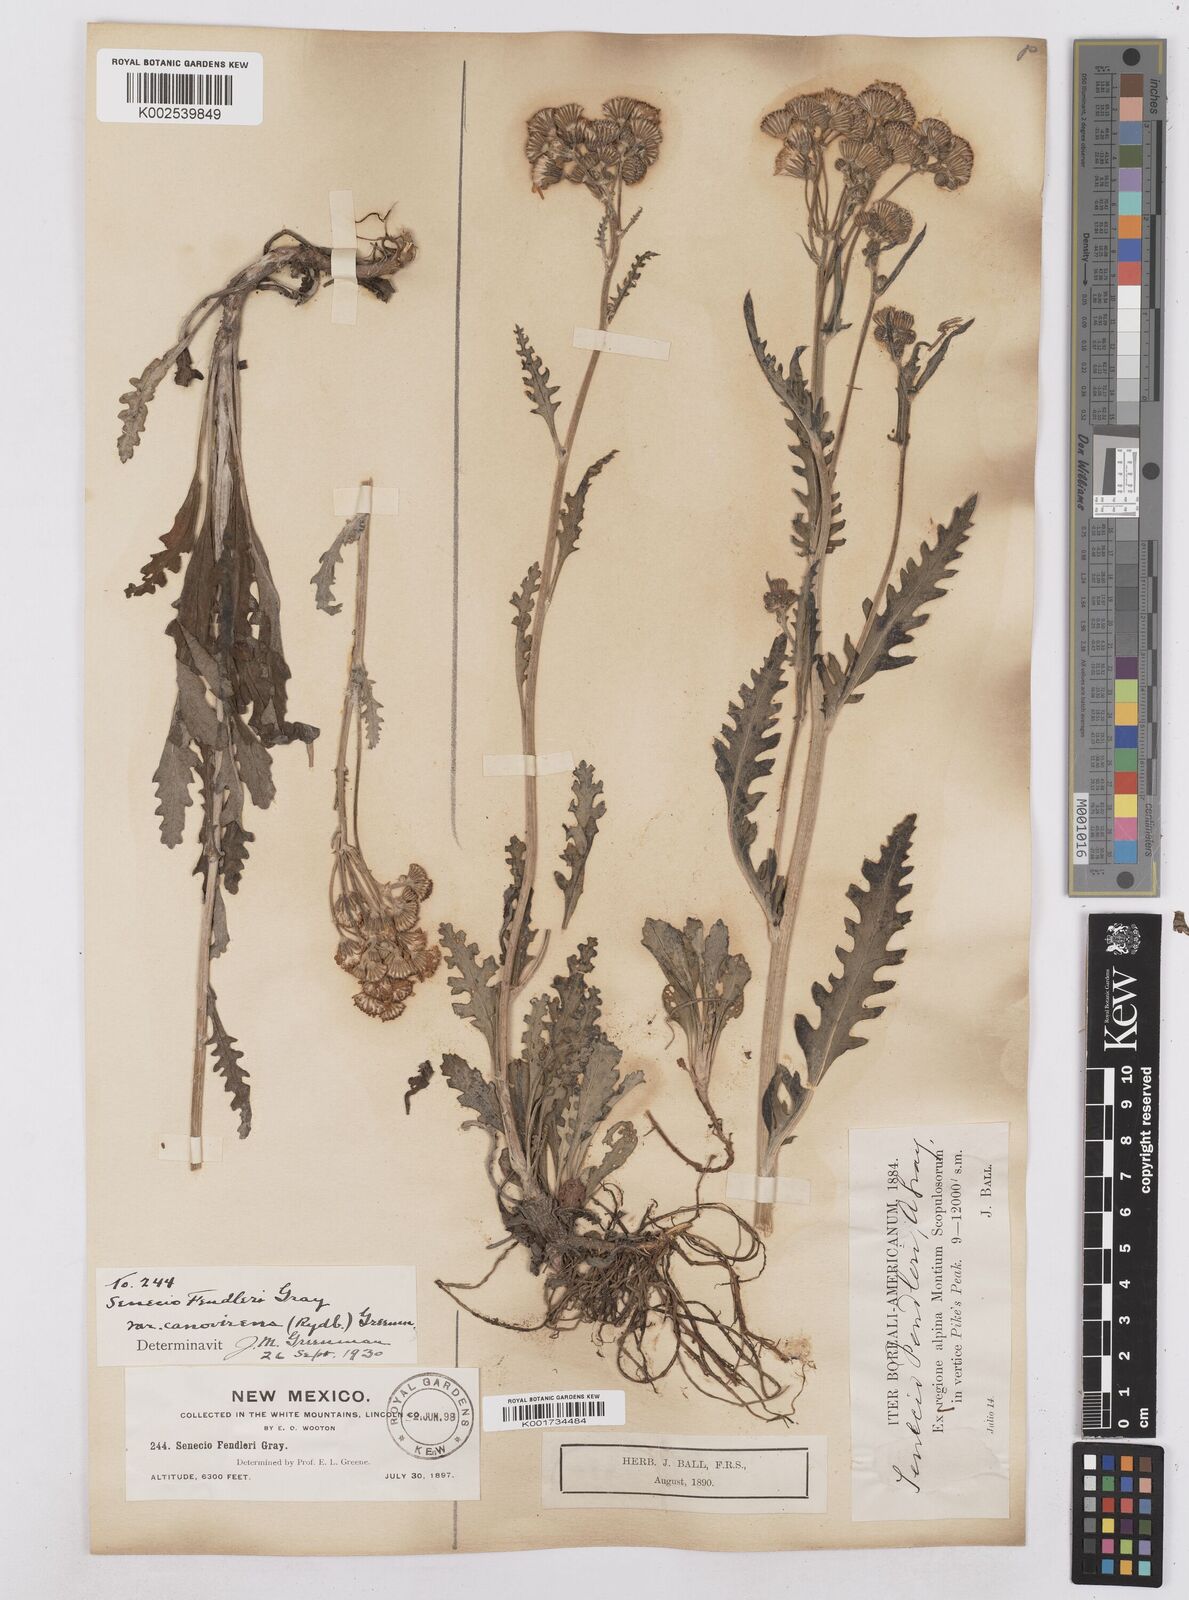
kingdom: Plantae
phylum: Tracheophyta
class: Magnoliopsida
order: Asterales
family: Asteraceae
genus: Packera
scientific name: Packera fendleri
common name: Notch-leaf butterweed
